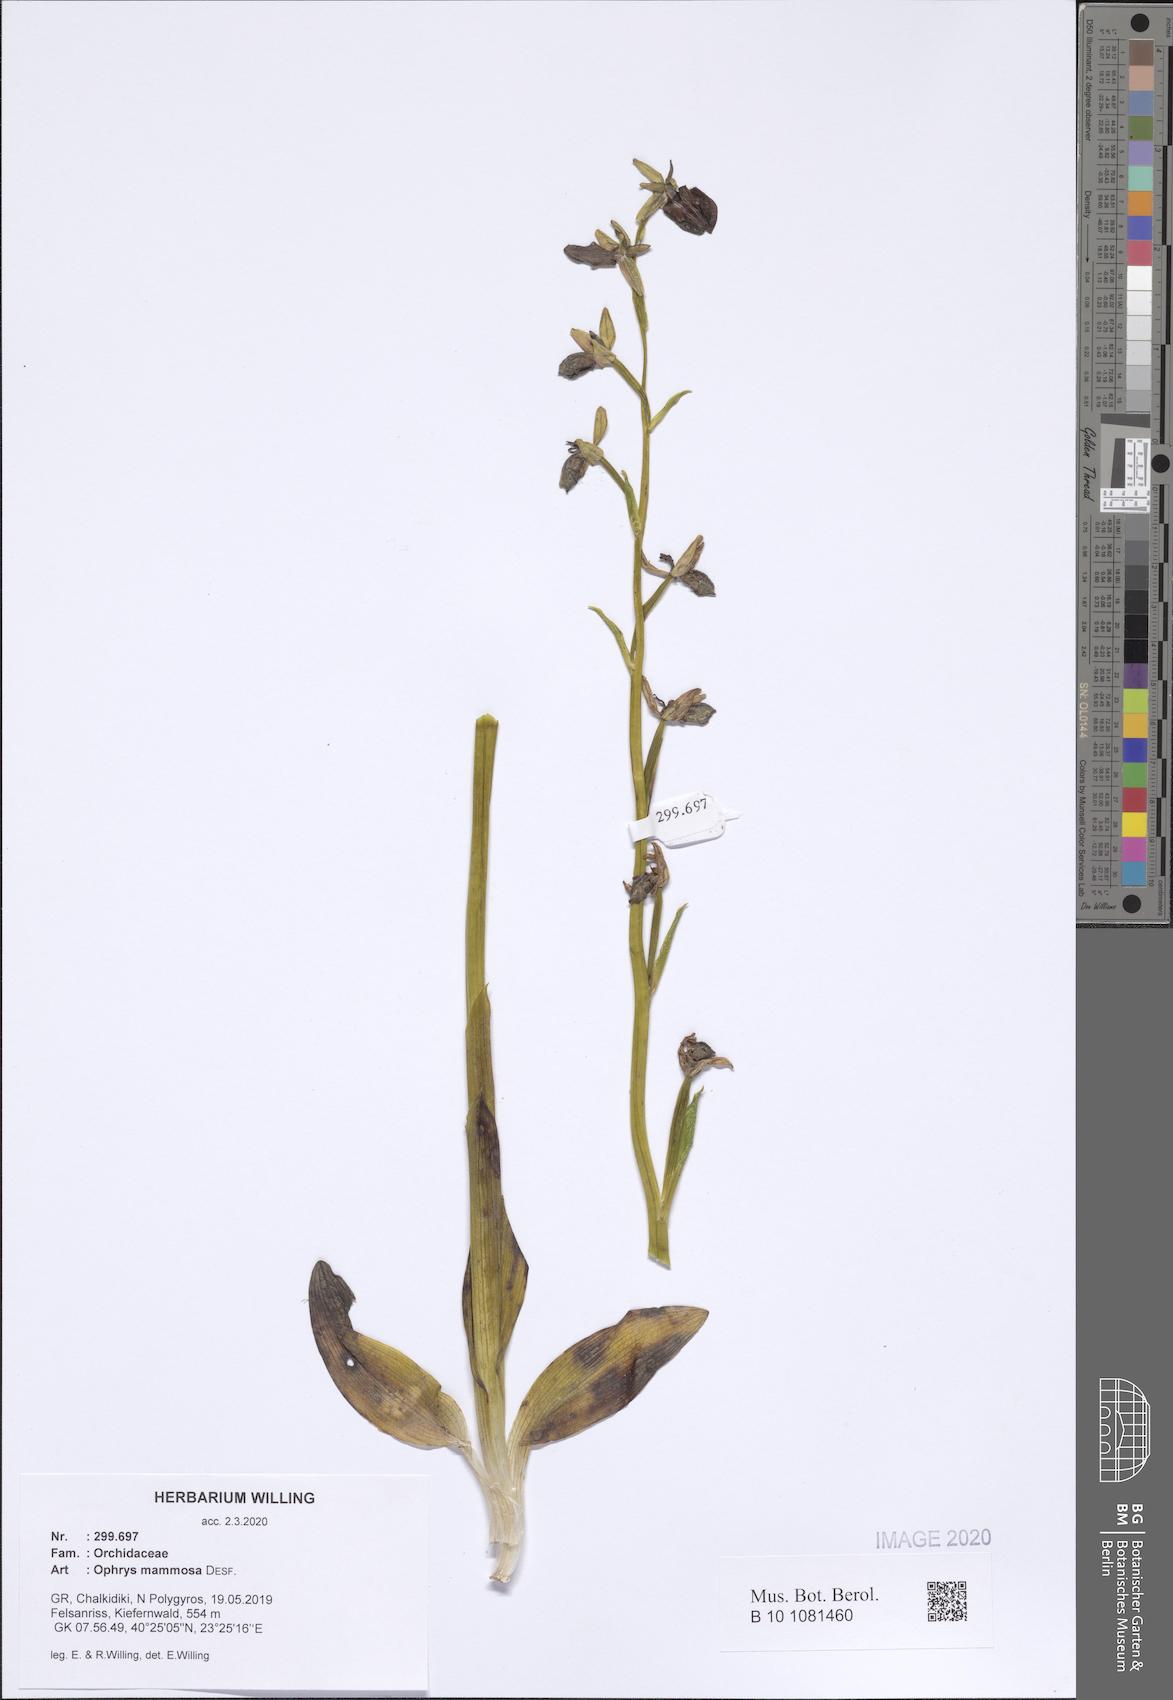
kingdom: Plantae
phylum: Tracheophyta
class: Liliopsida
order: Asparagales
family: Orchidaceae
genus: Ophrys
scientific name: Ophrys sphegodes
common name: Early spider-orchid
